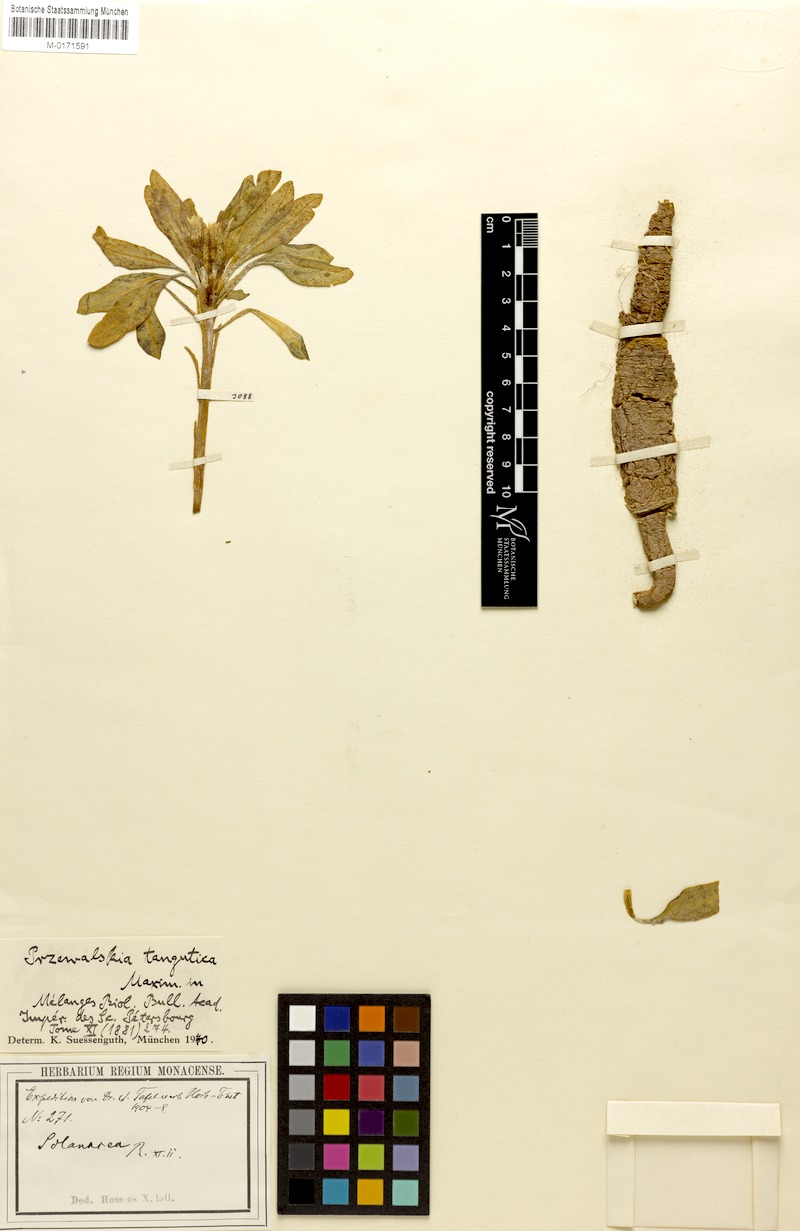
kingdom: Plantae
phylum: Tracheophyta
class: Magnoliopsida
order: Solanales
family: Solanaceae
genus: Przewalskia
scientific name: Przewalskia tangutica
